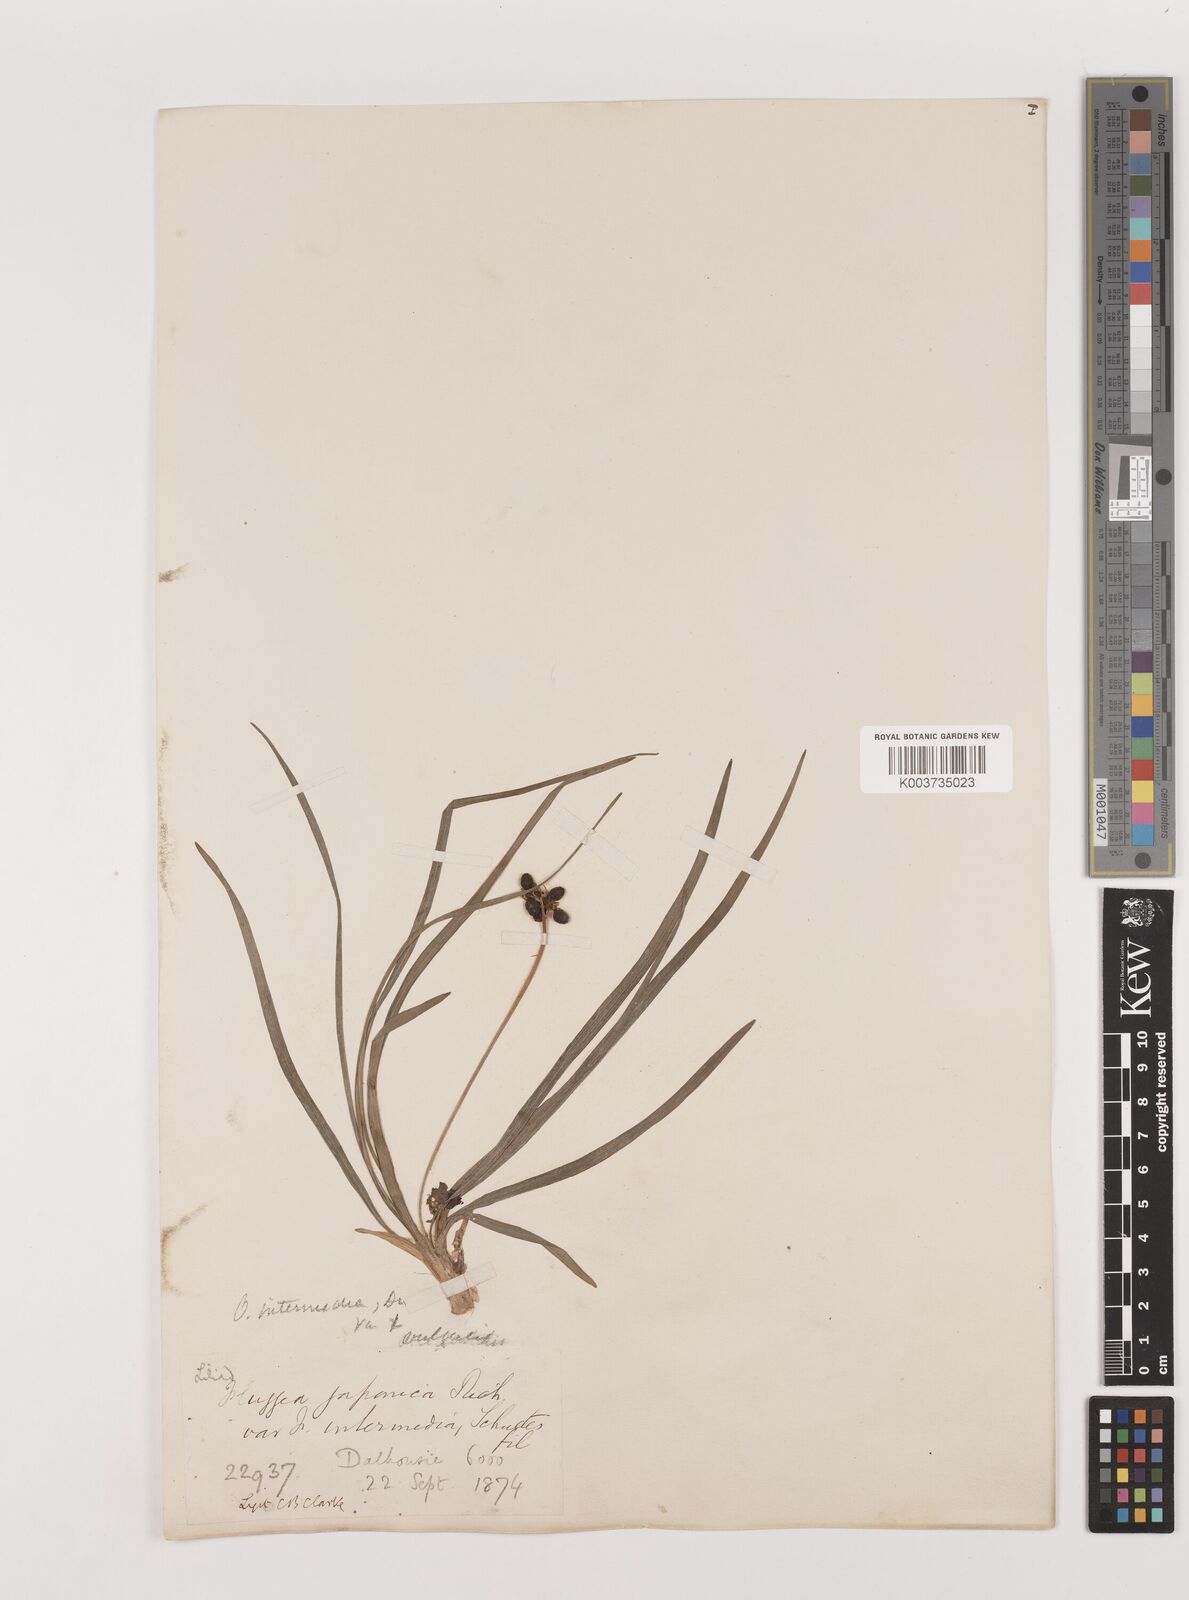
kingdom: Plantae
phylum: Tracheophyta
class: Liliopsida
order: Asparagales
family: Asparagaceae
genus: Ophiopogon
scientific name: Ophiopogon intermedius
